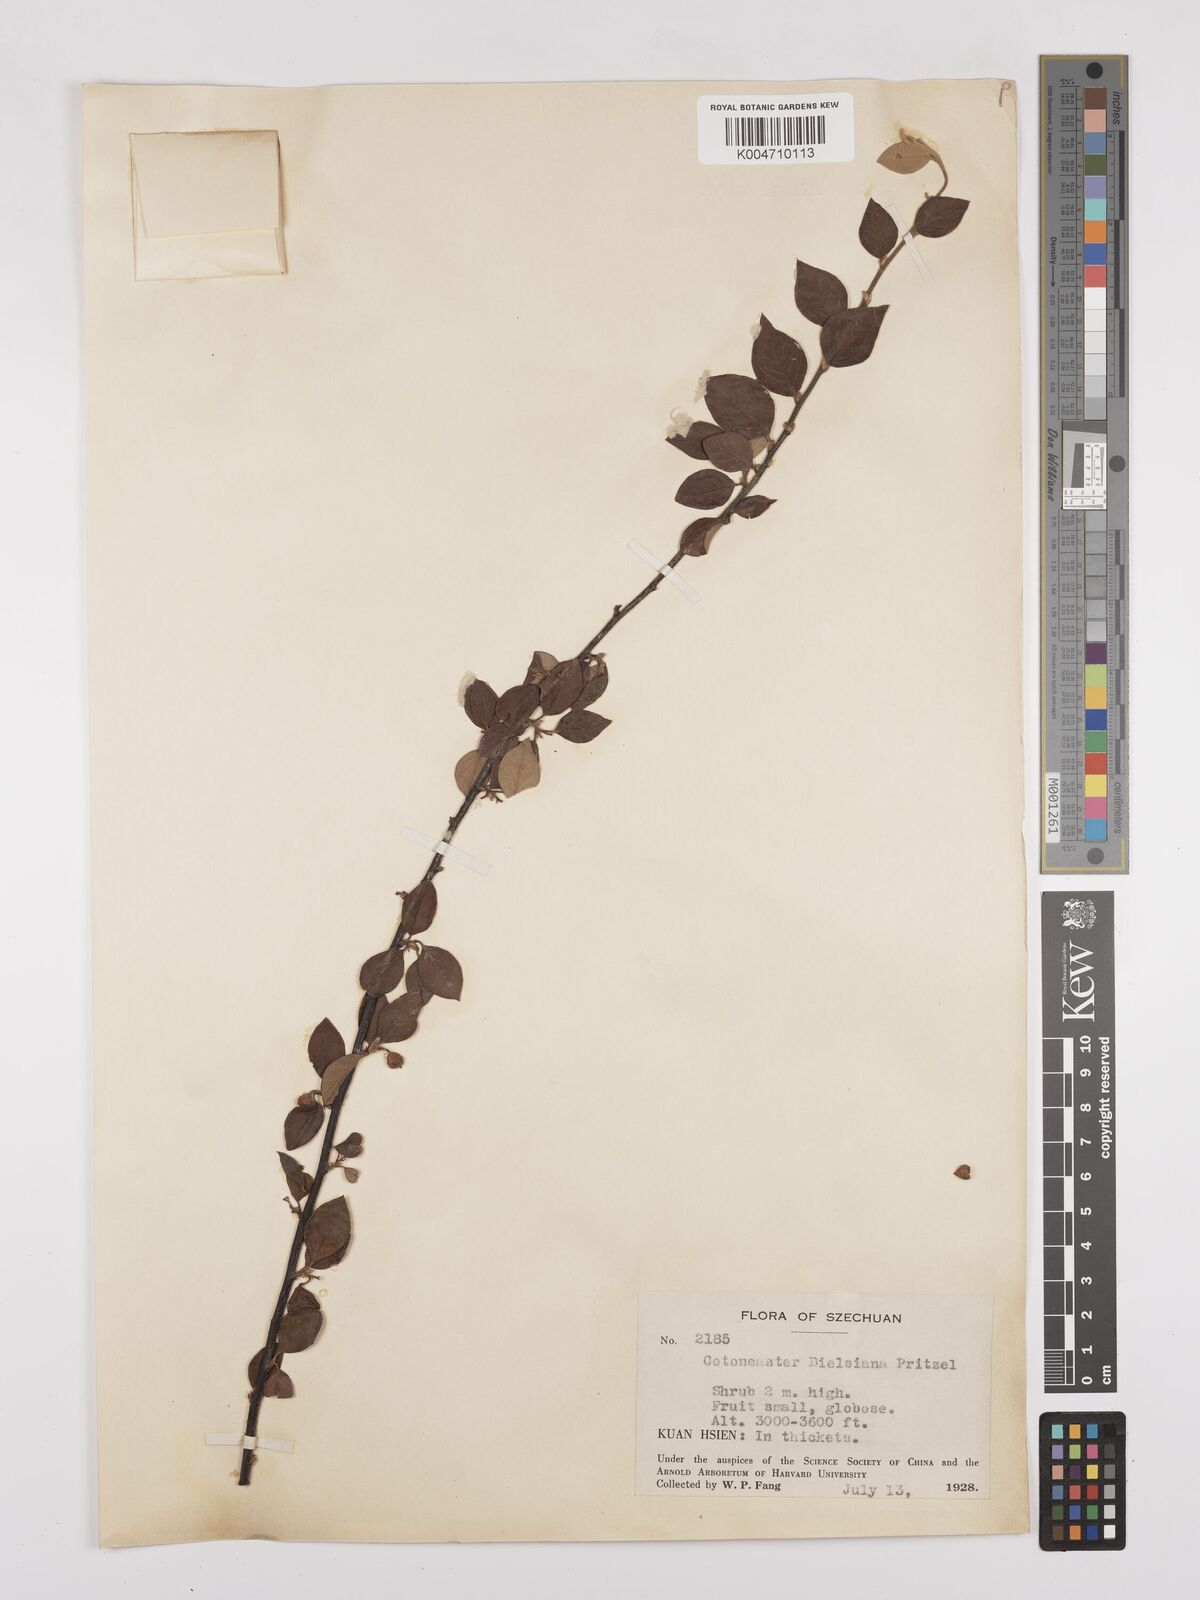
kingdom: Plantae
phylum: Tracheophyta
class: Magnoliopsida
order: Rosales
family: Rosaceae
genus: Cotoneaster
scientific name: Cotoneaster dielsianus
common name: Diels's cotoneaster
